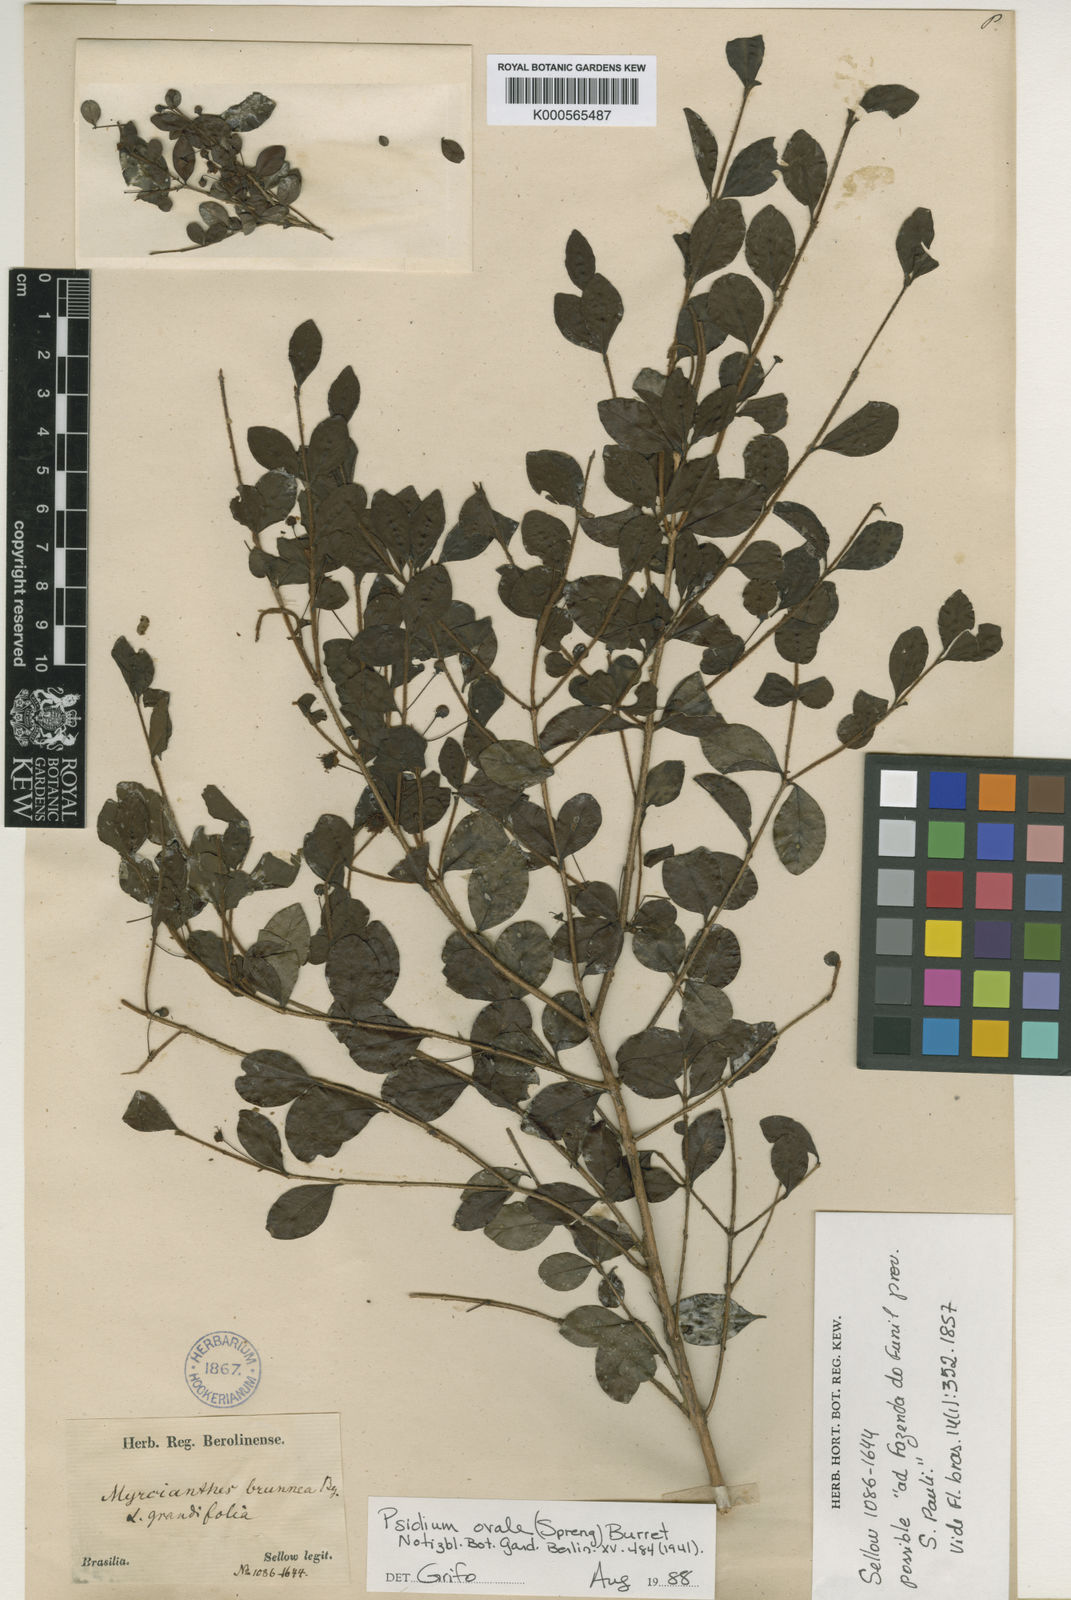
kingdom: Plantae
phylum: Tracheophyta
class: Magnoliopsida
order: Myrtales
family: Myrtaceae
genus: Psidium
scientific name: Psidium ovale
